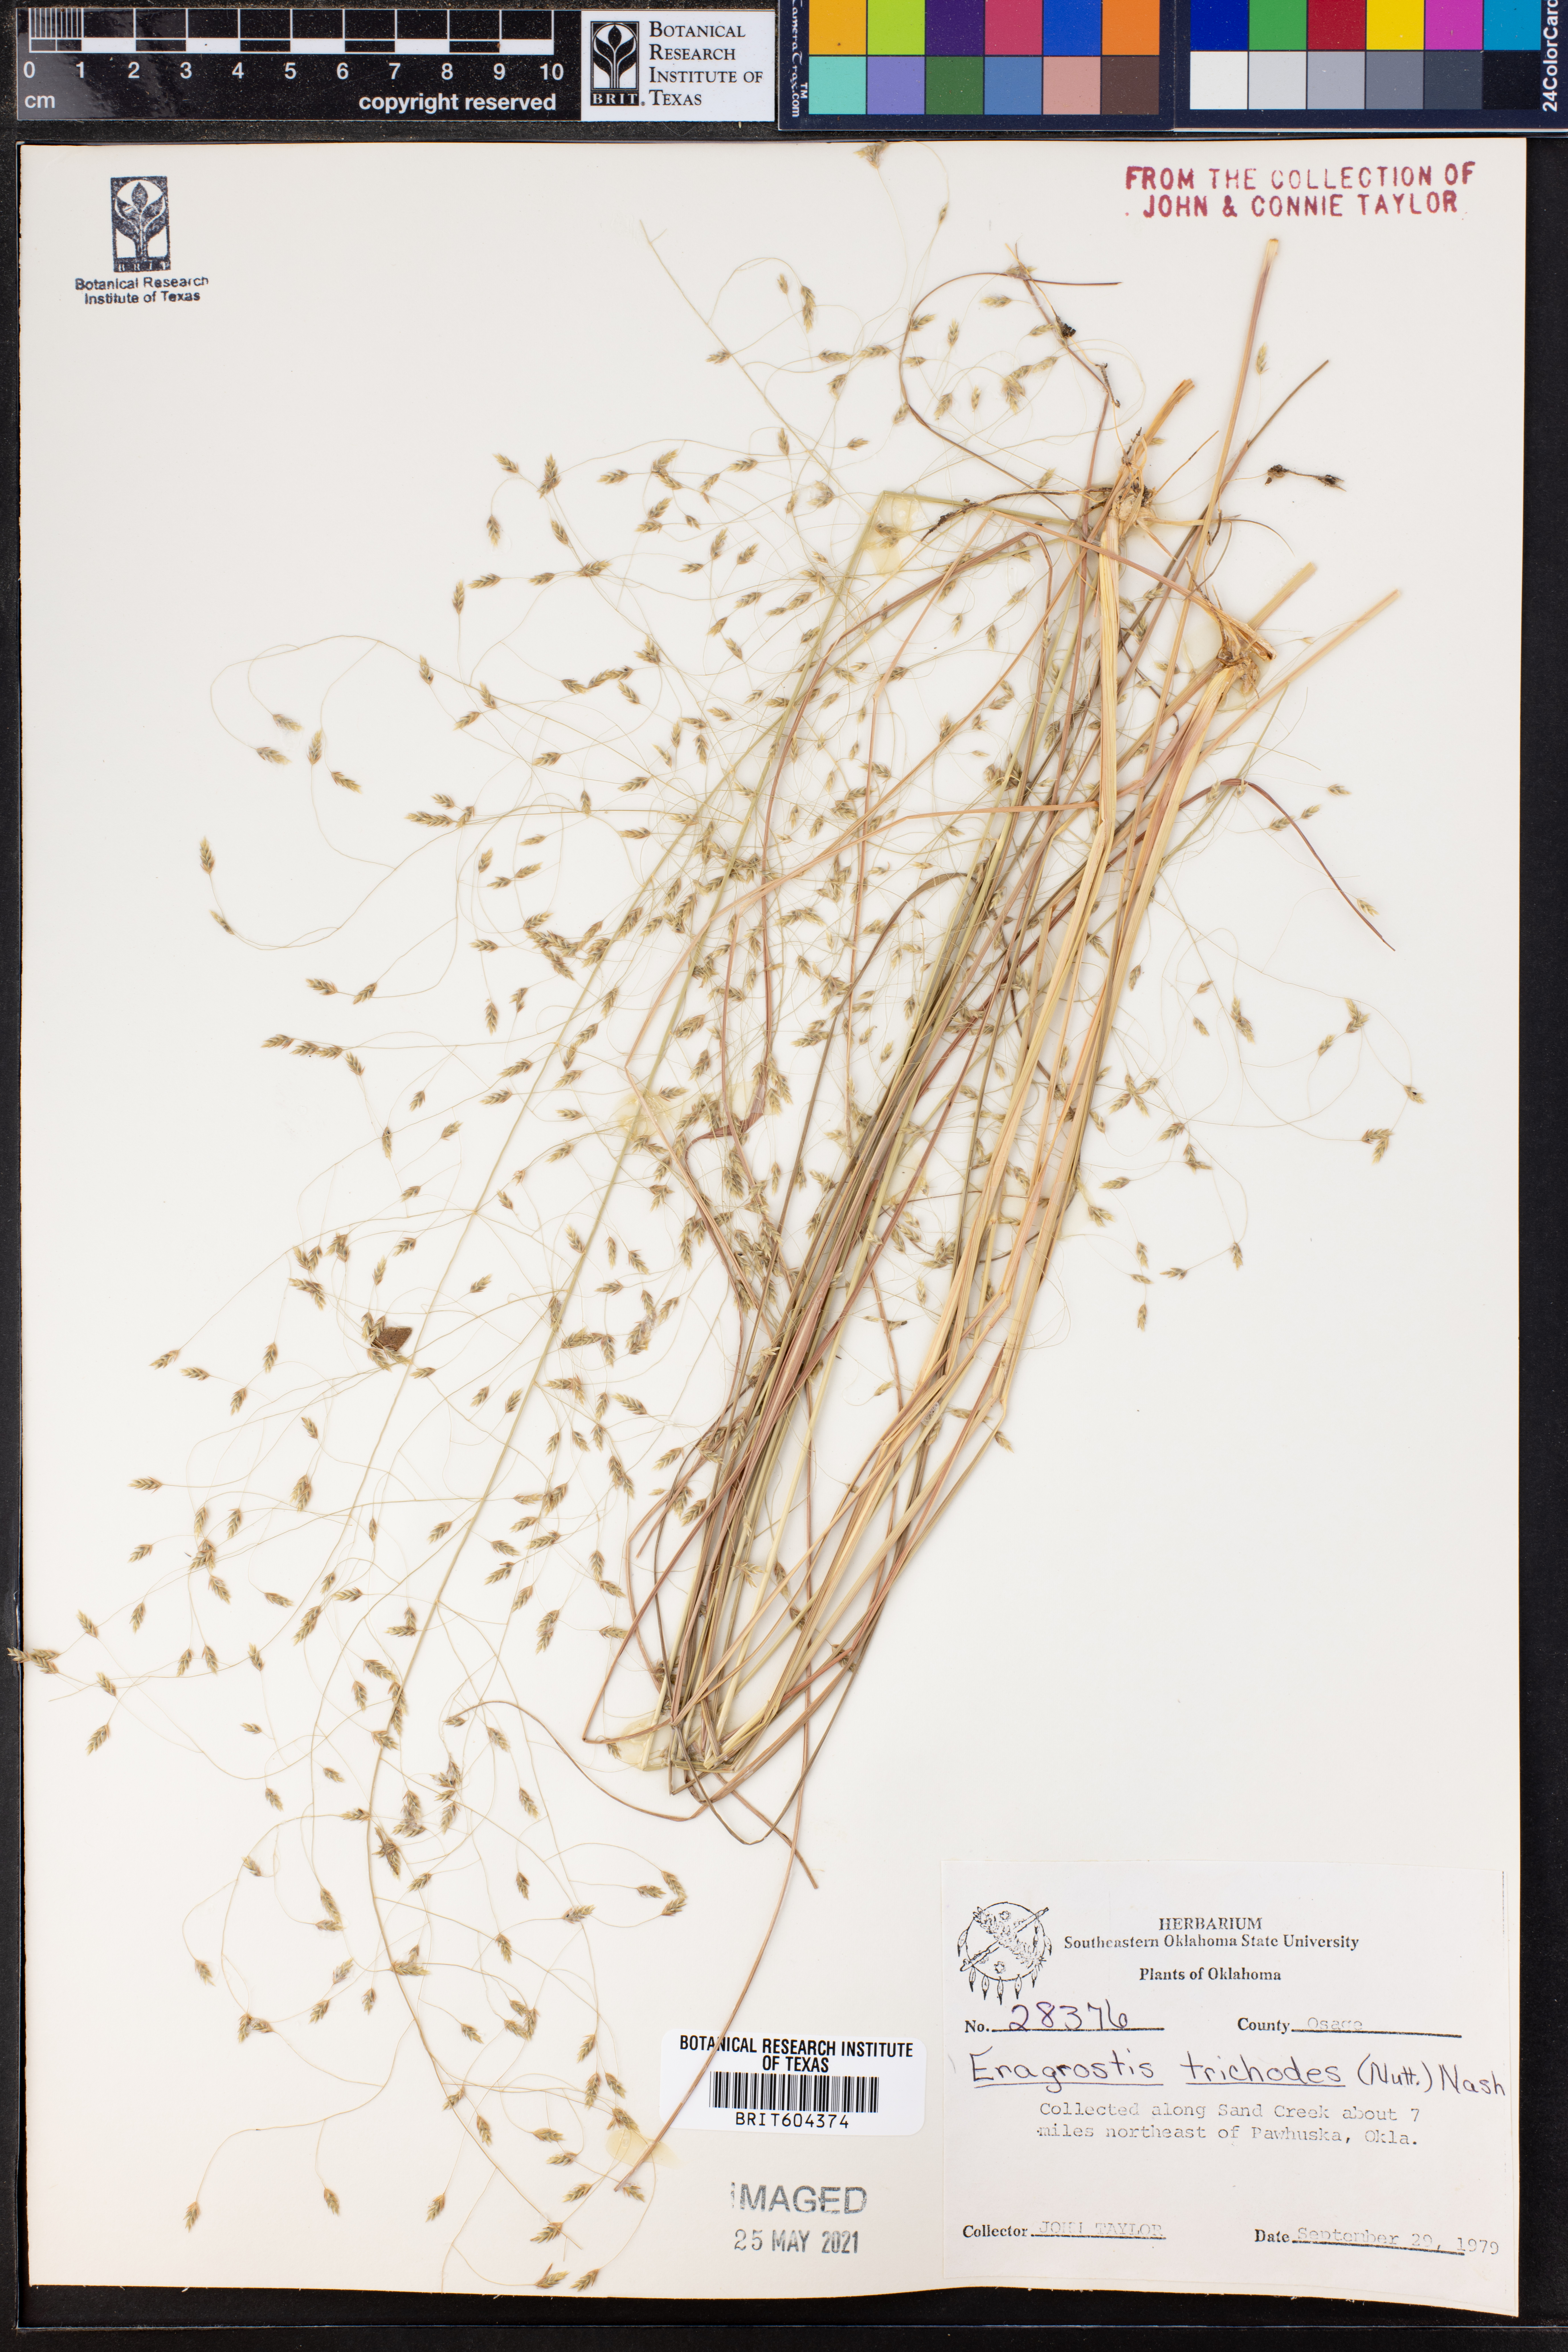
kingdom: Plantae
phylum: Tracheophyta
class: Liliopsida
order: Poales
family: Poaceae
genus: Eragrostis
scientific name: Eragrostis trichodes
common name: Sand love grass
